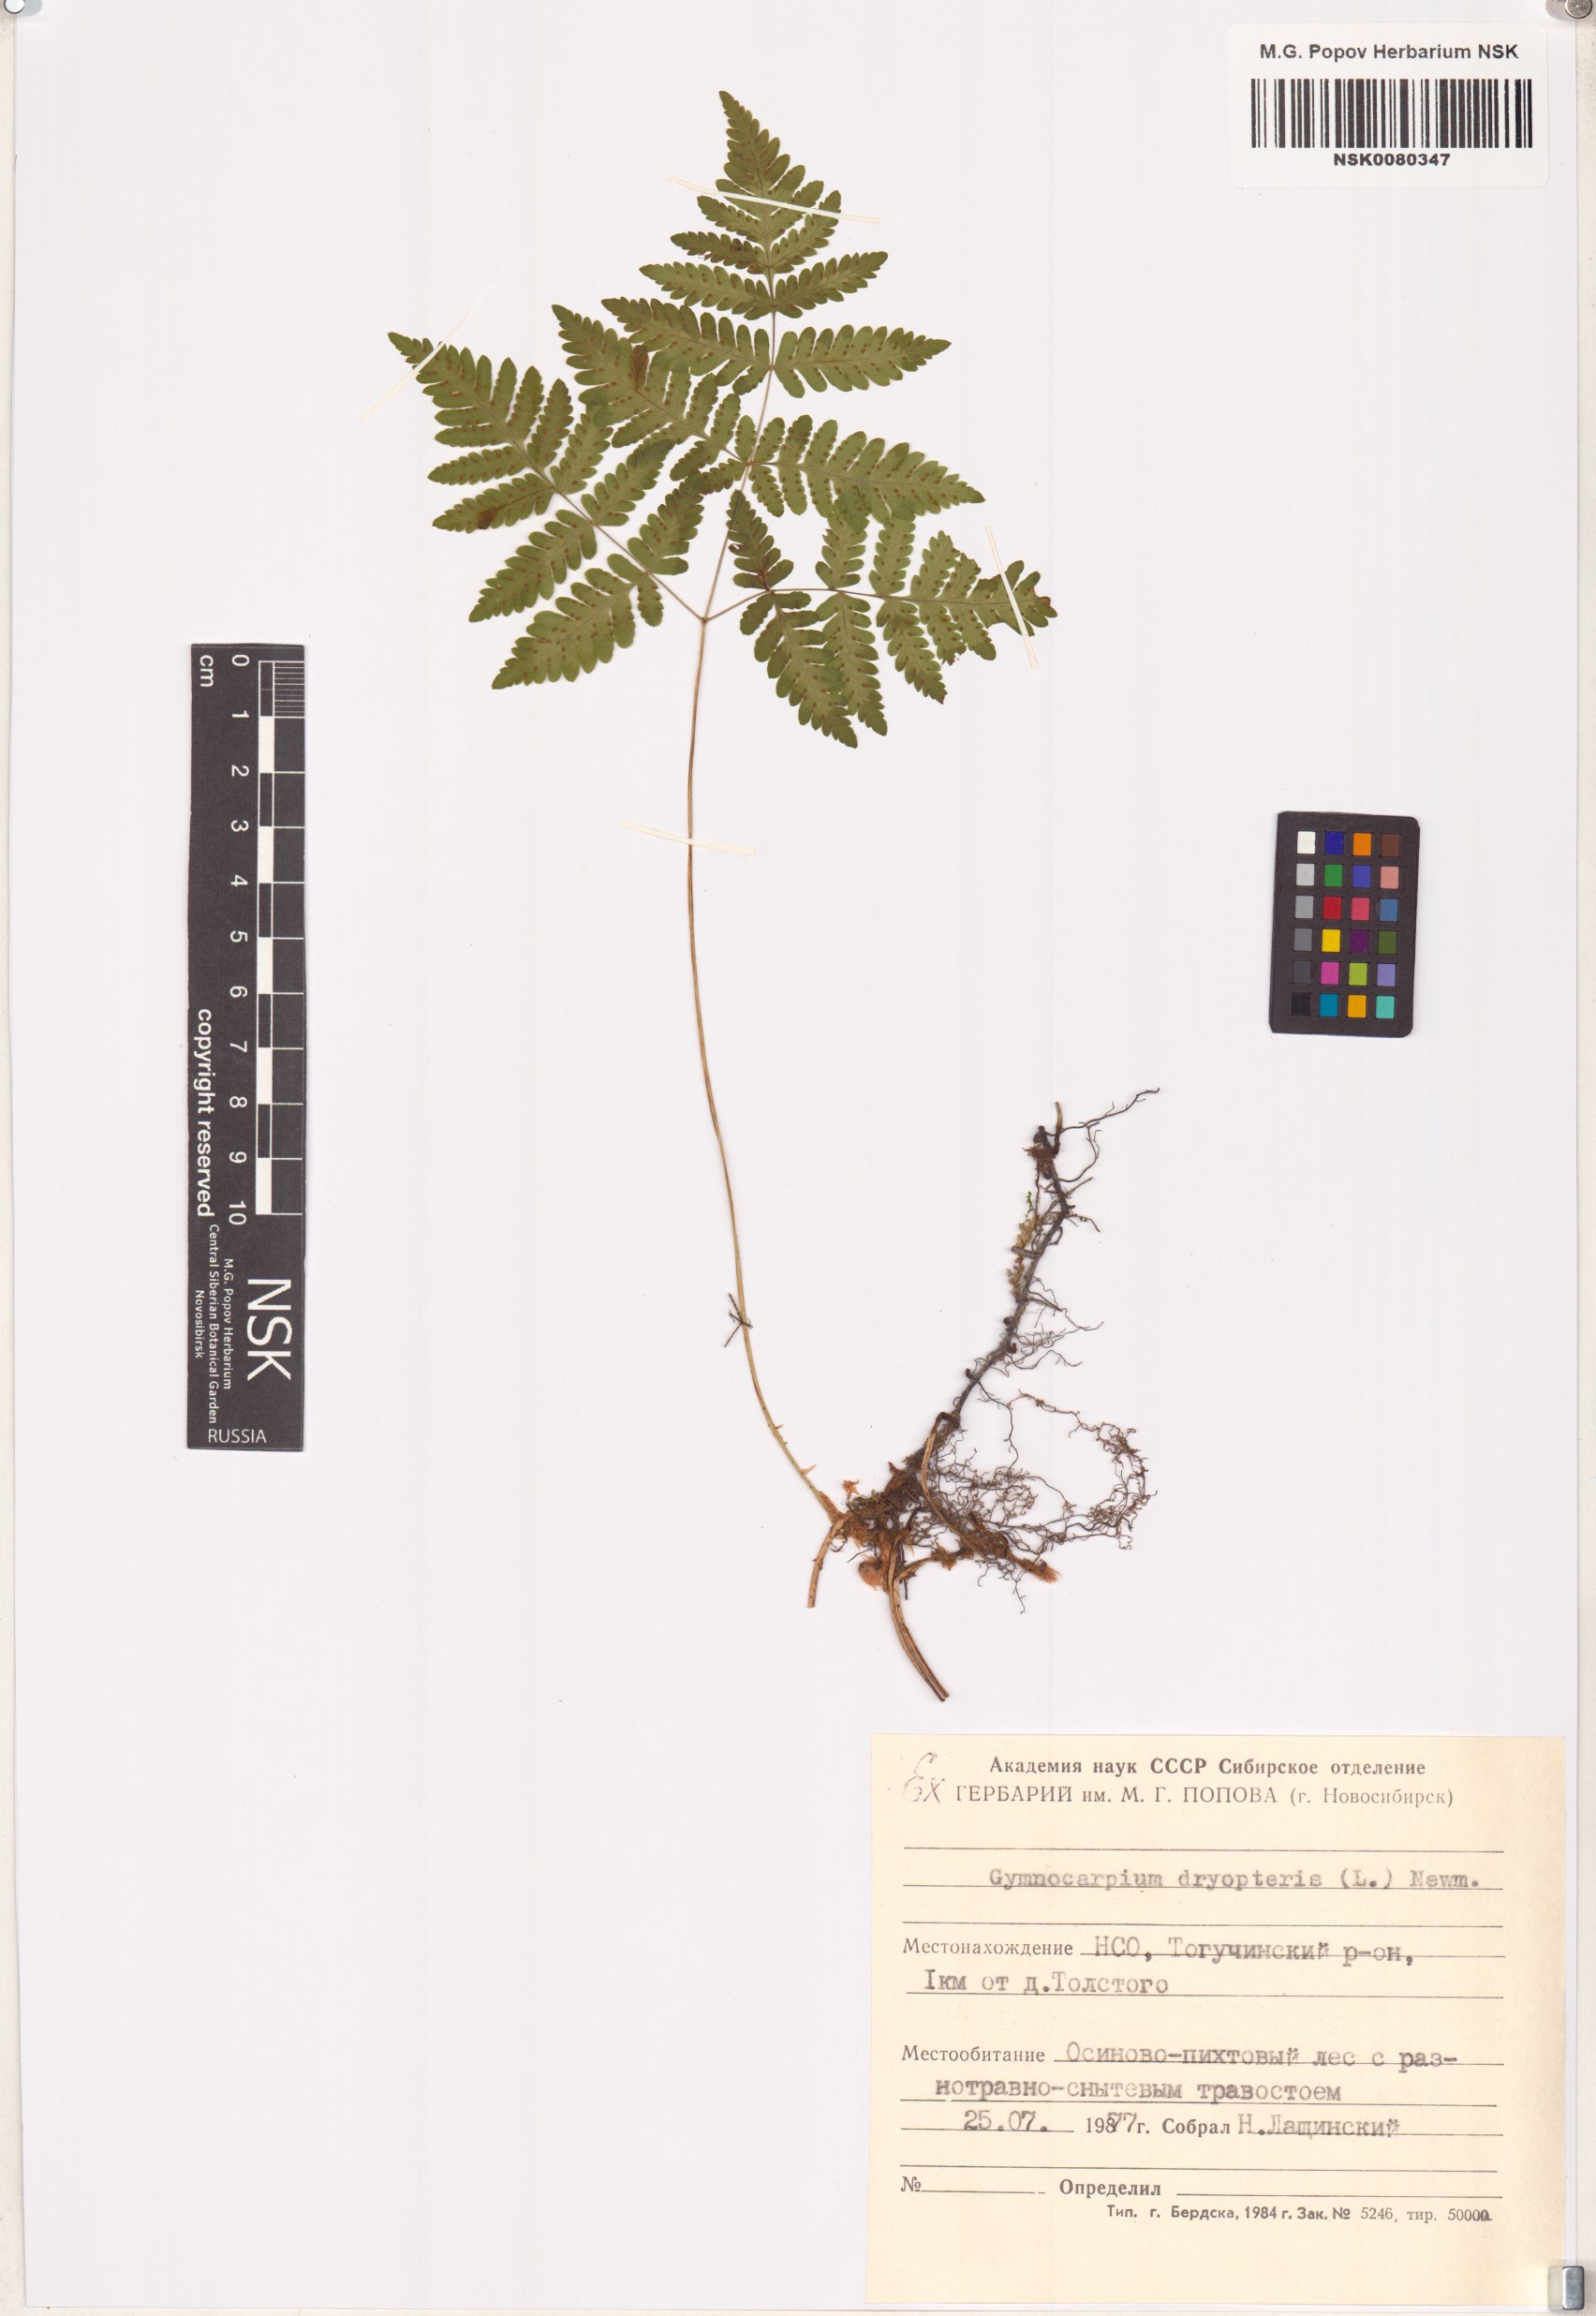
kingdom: Plantae
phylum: Tracheophyta
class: Polypodiopsida
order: Polypodiales
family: Cystopteridaceae
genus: Gymnocarpium
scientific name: Gymnocarpium dryopteris
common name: Oak fern
